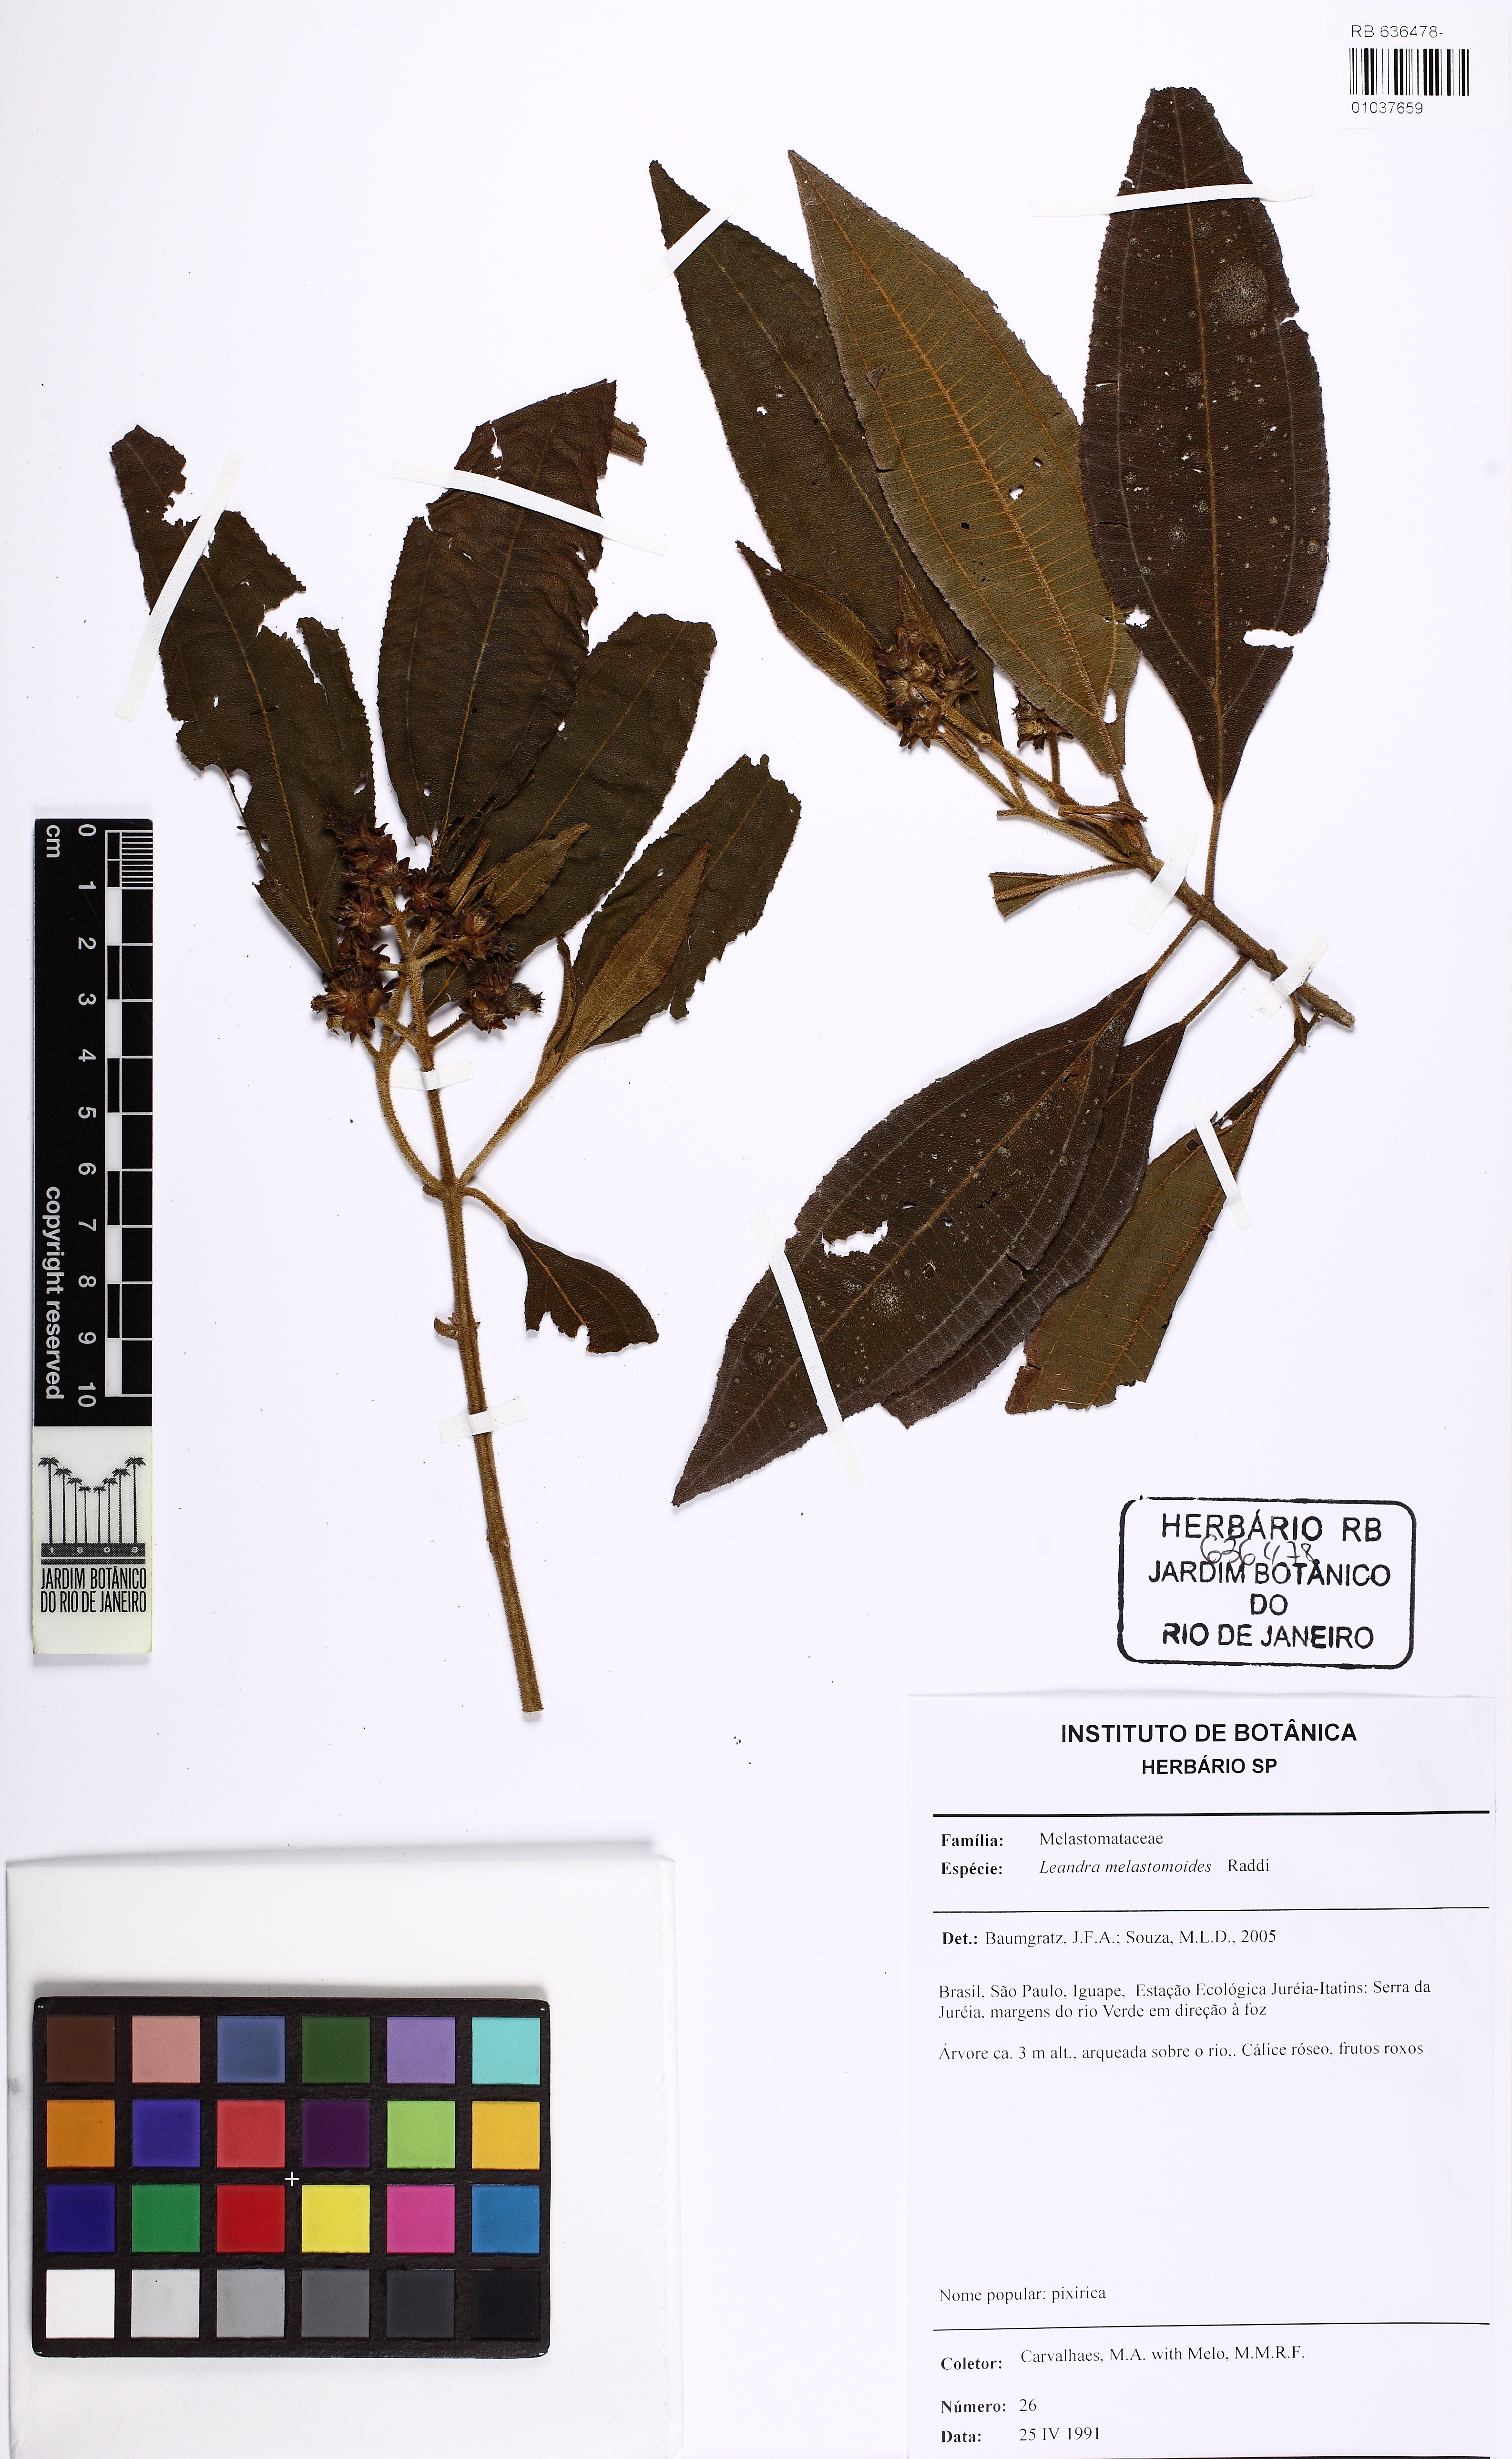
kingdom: Plantae
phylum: Tracheophyta
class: Magnoliopsida
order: Myrtales
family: Melastomataceae
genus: Miconia
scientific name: Miconia melastomoides
